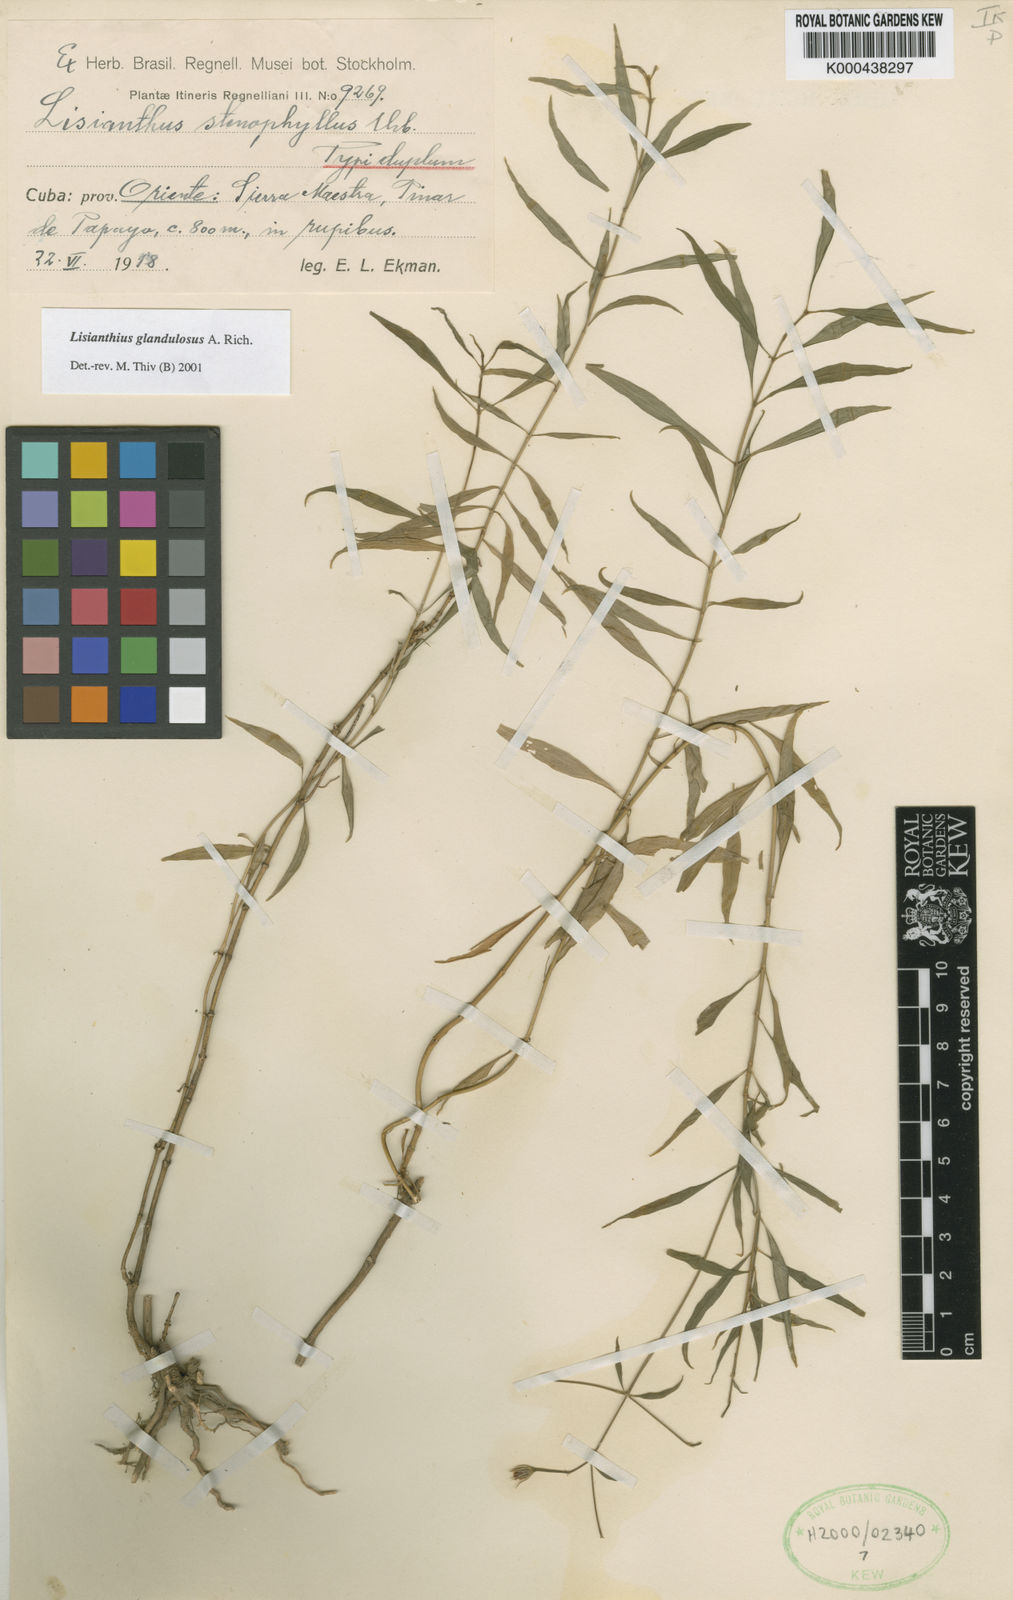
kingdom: Plantae
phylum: Tracheophyta
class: Magnoliopsida
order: Gentianales
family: Gentianaceae
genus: Lisianthus
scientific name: Lisianthus glandulosus
